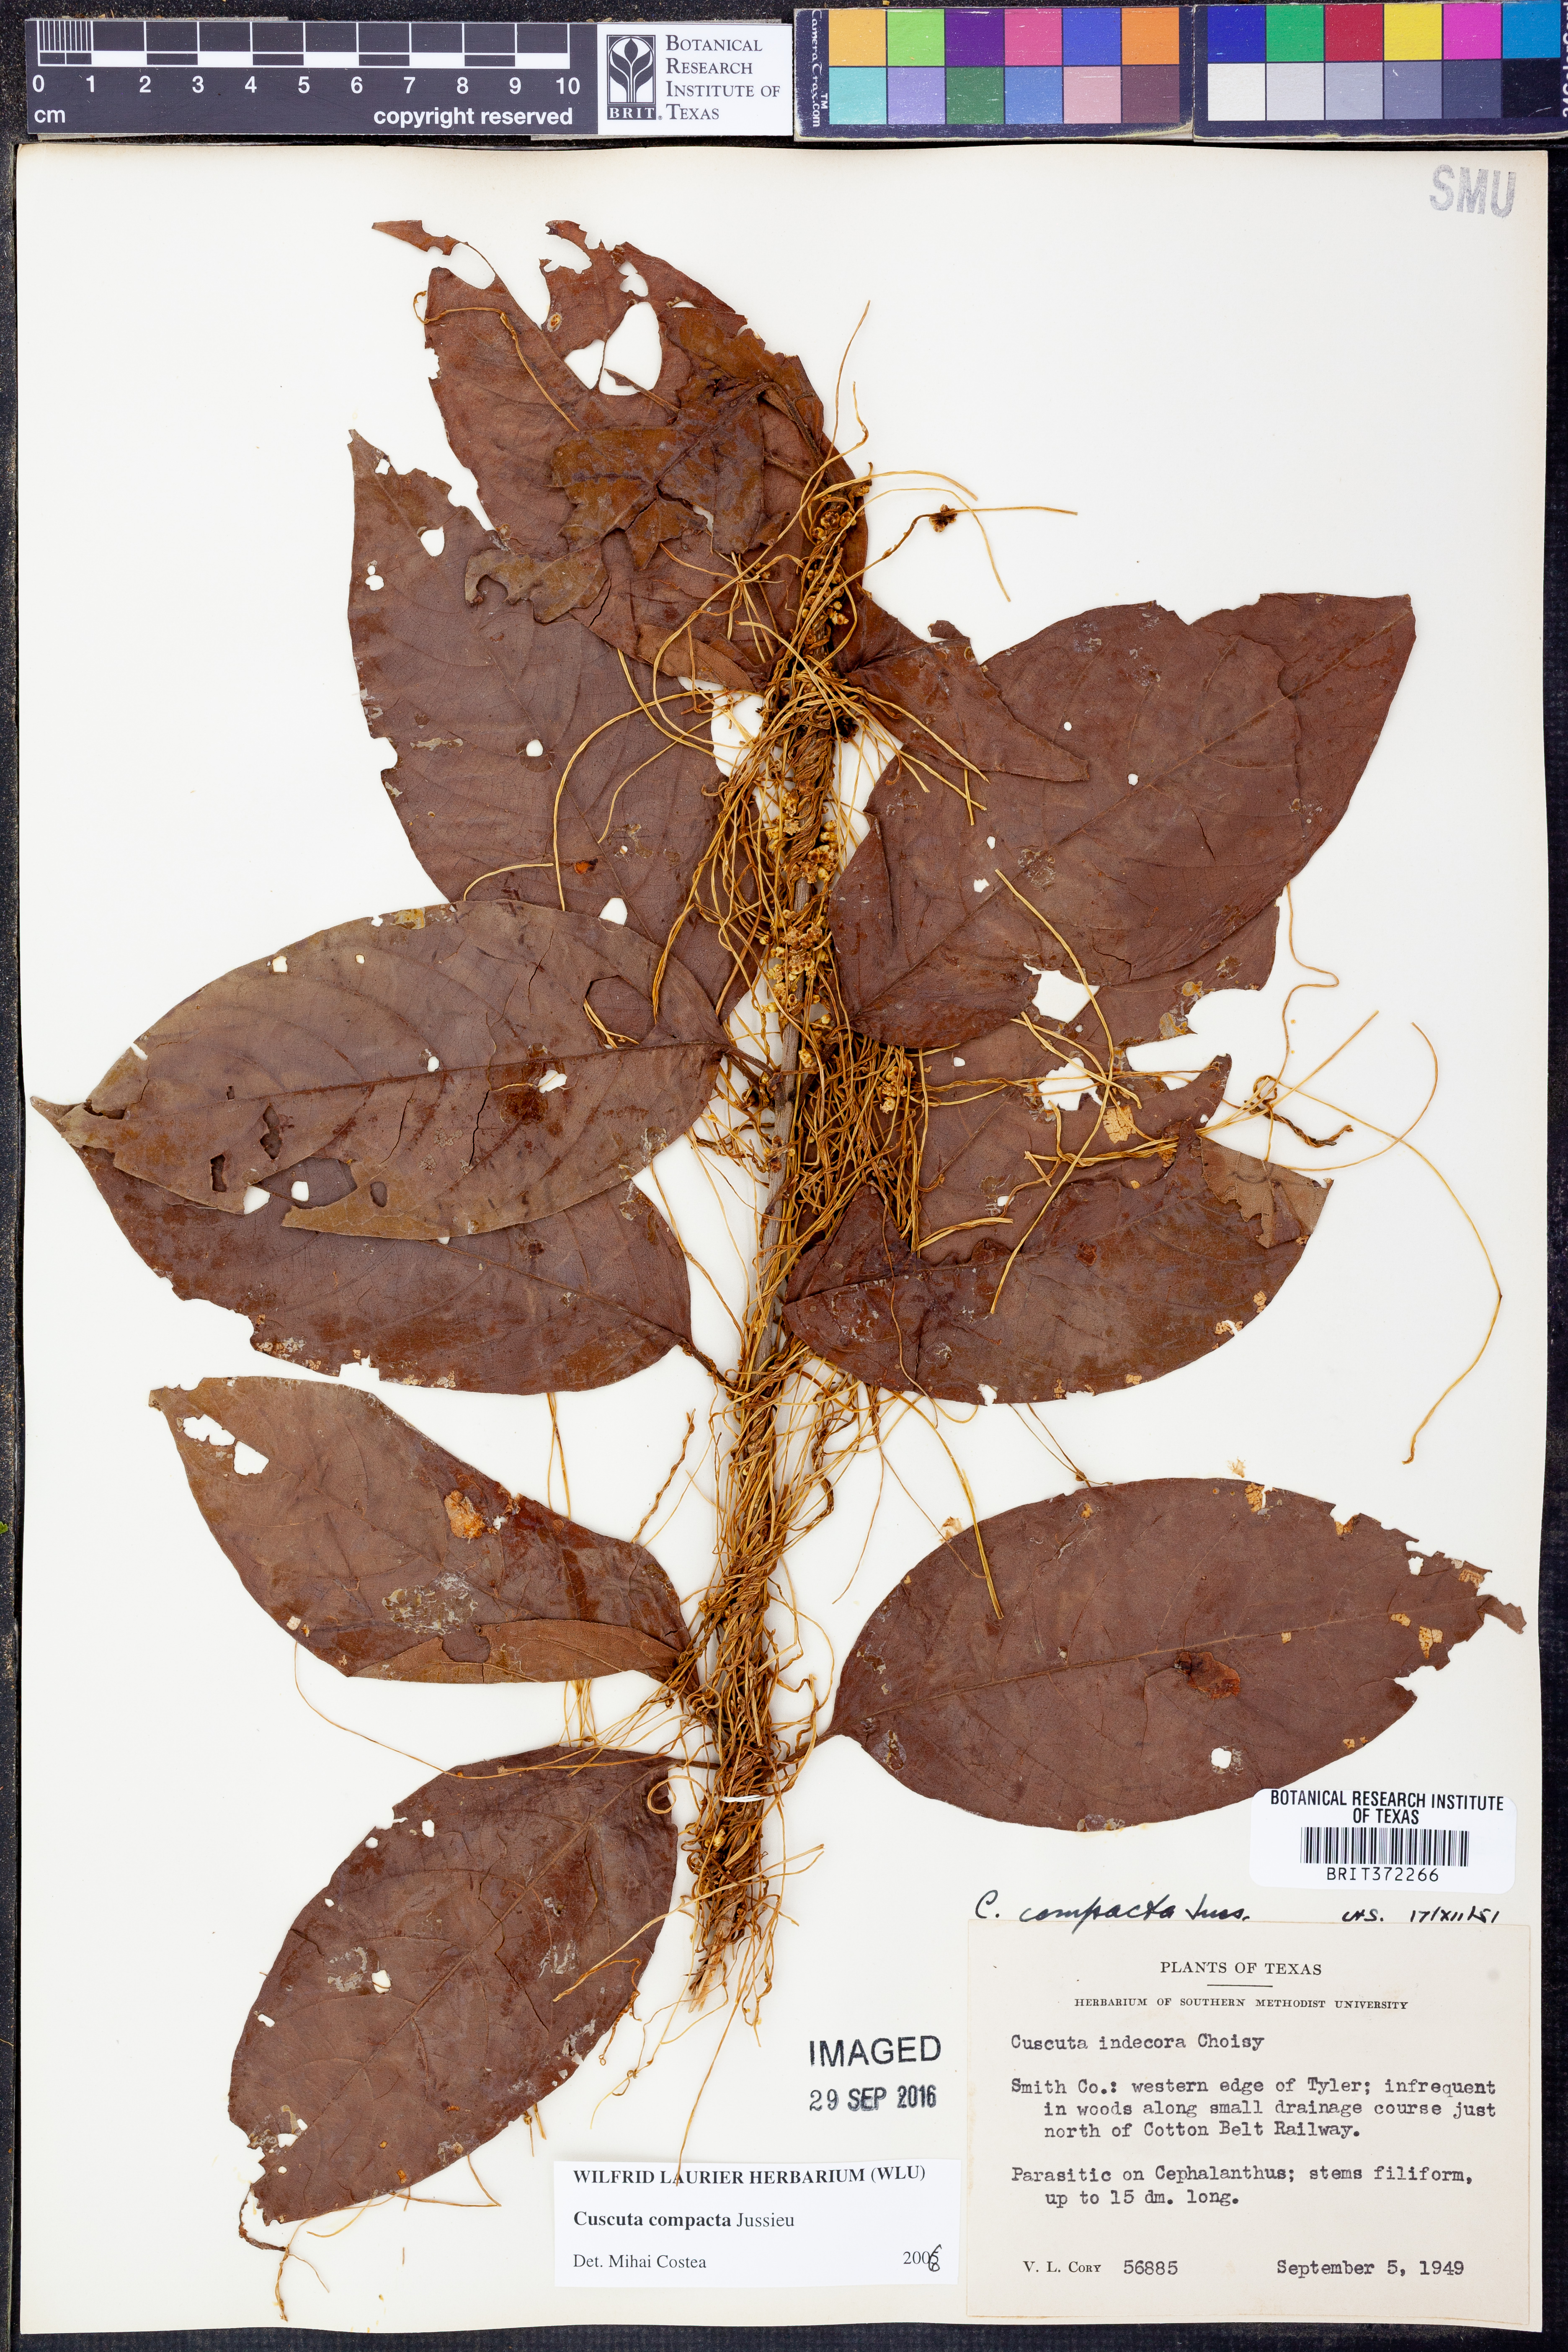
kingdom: Plantae
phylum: Tracheophyta
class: Magnoliopsida
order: Solanales
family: Convolvulaceae
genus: Cuscuta
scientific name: Cuscuta compacta
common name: Compact dodder
